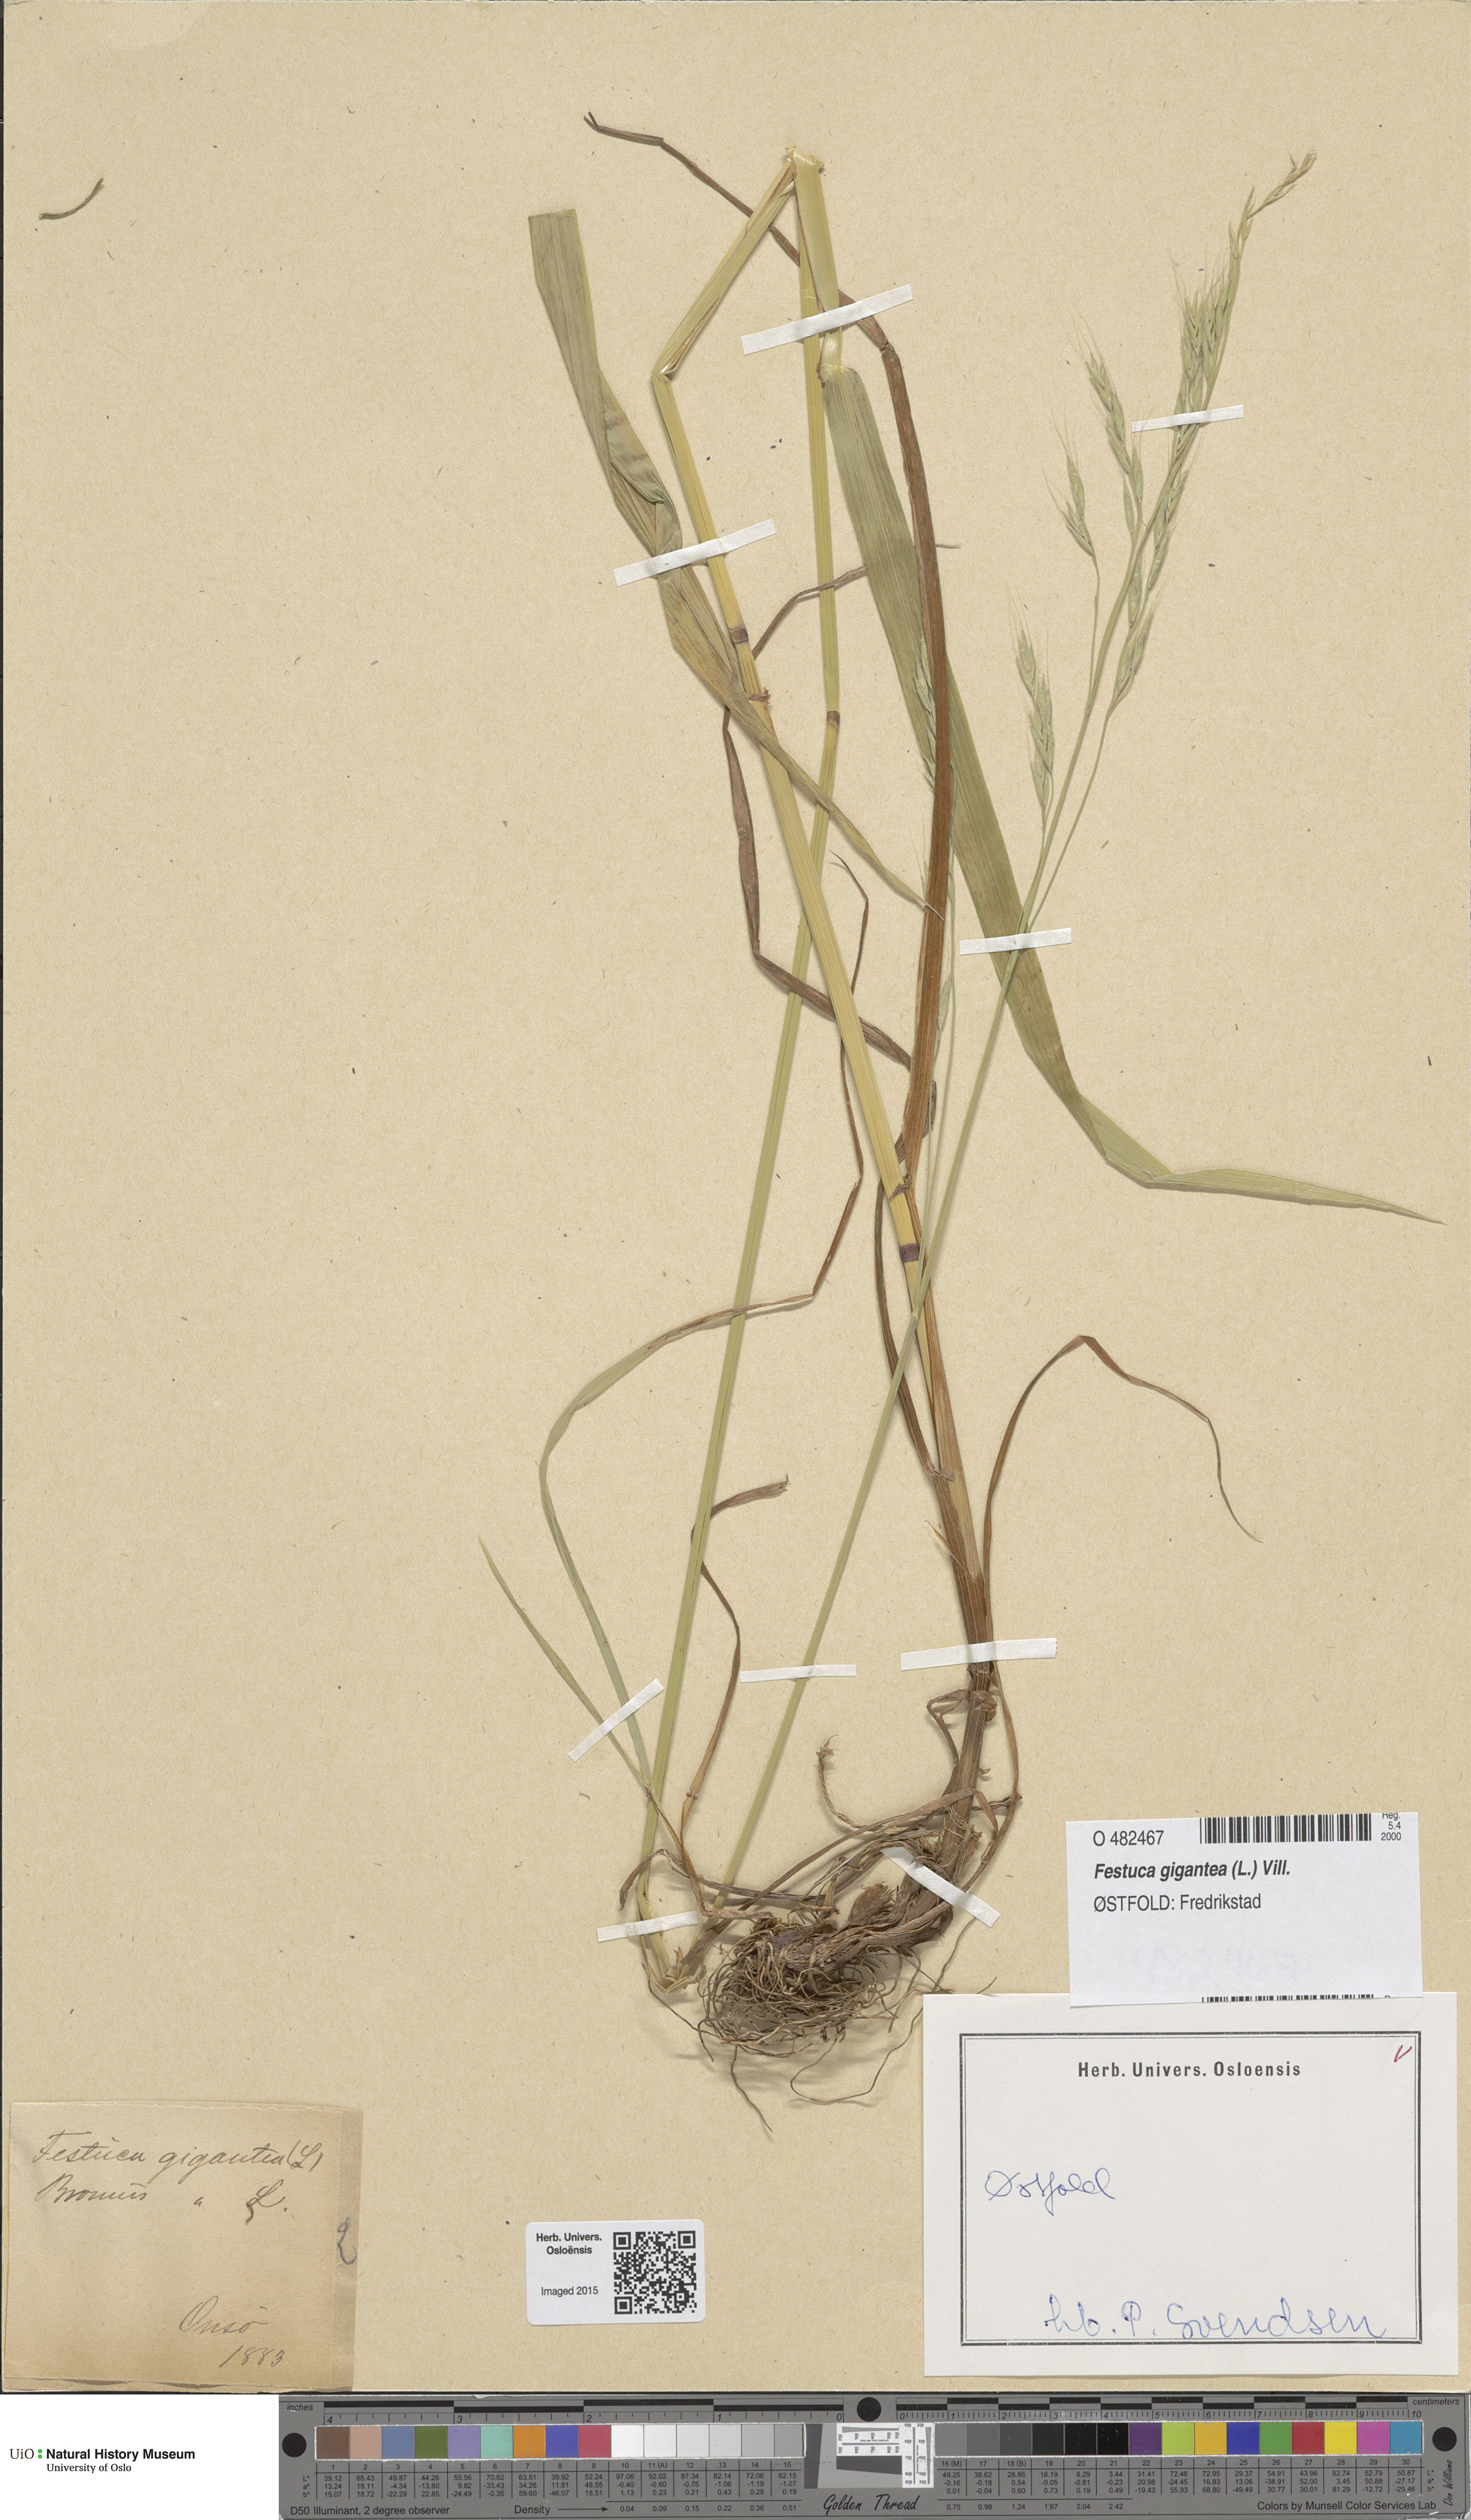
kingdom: Plantae
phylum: Tracheophyta
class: Liliopsida
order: Poales
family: Poaceae
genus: Lolium
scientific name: Lolium giganteum
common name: Giant fescue
